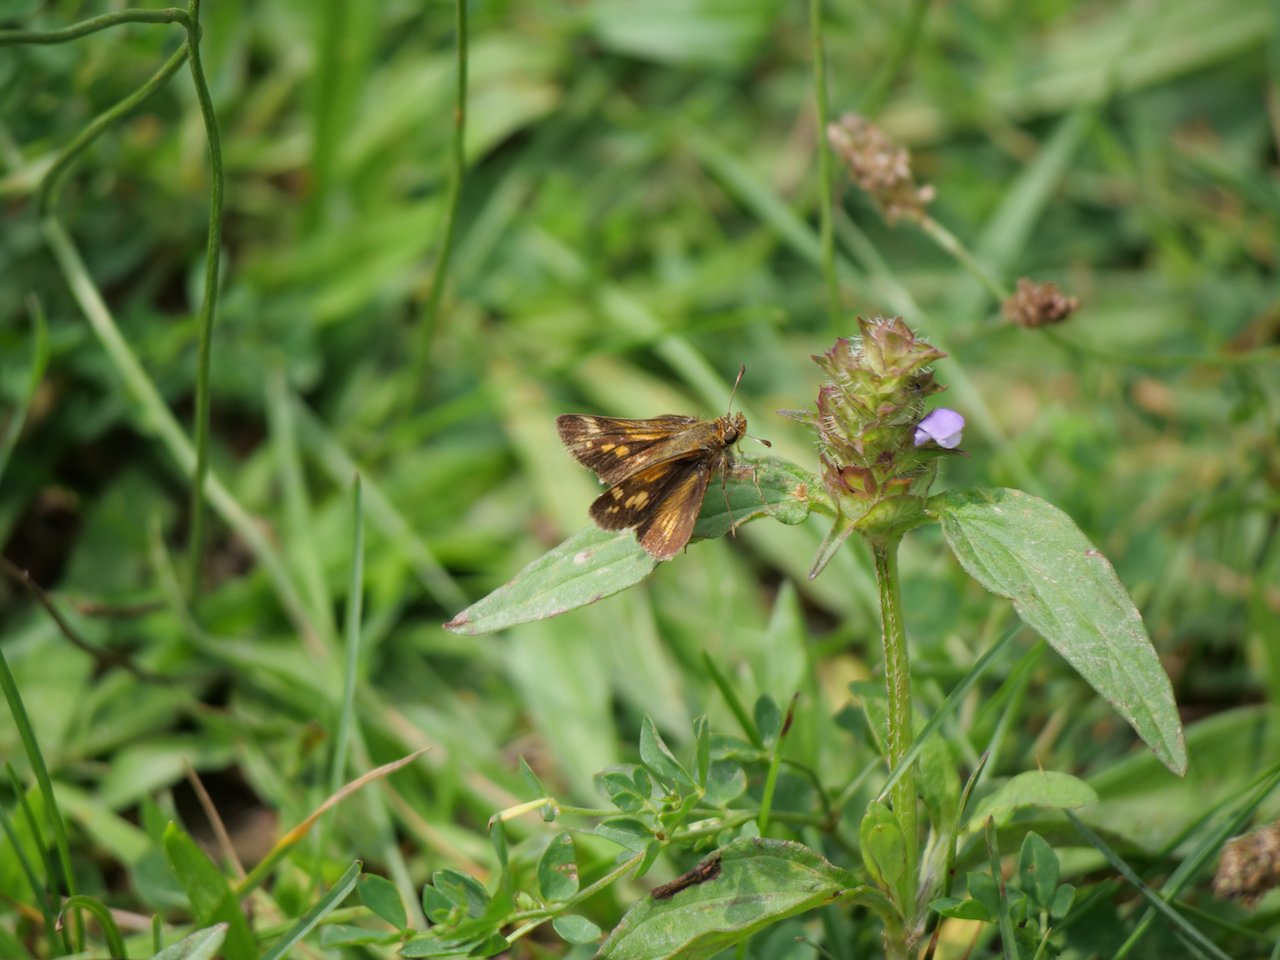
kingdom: Animalia
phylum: Arthropoda
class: Insecta
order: Lepidoptera
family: Hesperiidae
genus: Polites
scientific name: Polites coras
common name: Peck's Skipper
